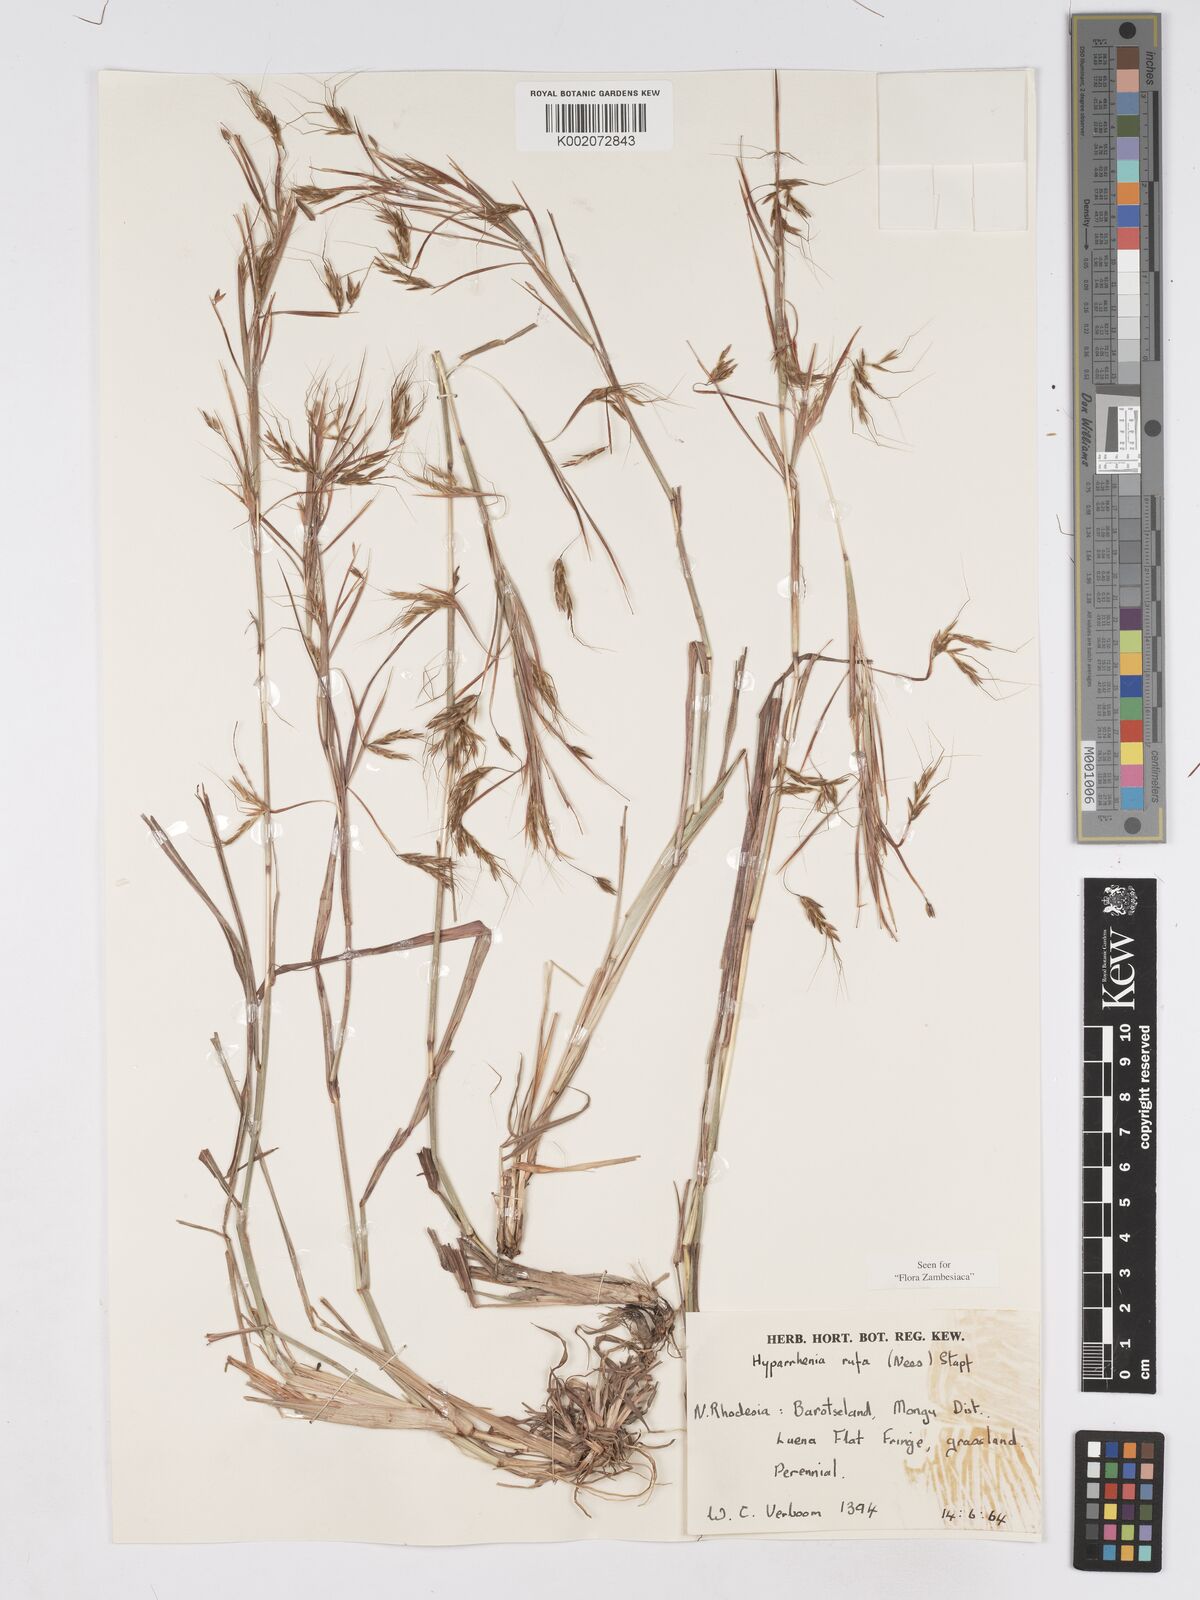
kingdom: Plantae
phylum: Tracheophyta
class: Liliopsida
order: Poales
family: Poaceae
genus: Hyparrhenia
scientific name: Hyparrhenia rufa
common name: Jaraguagrass
